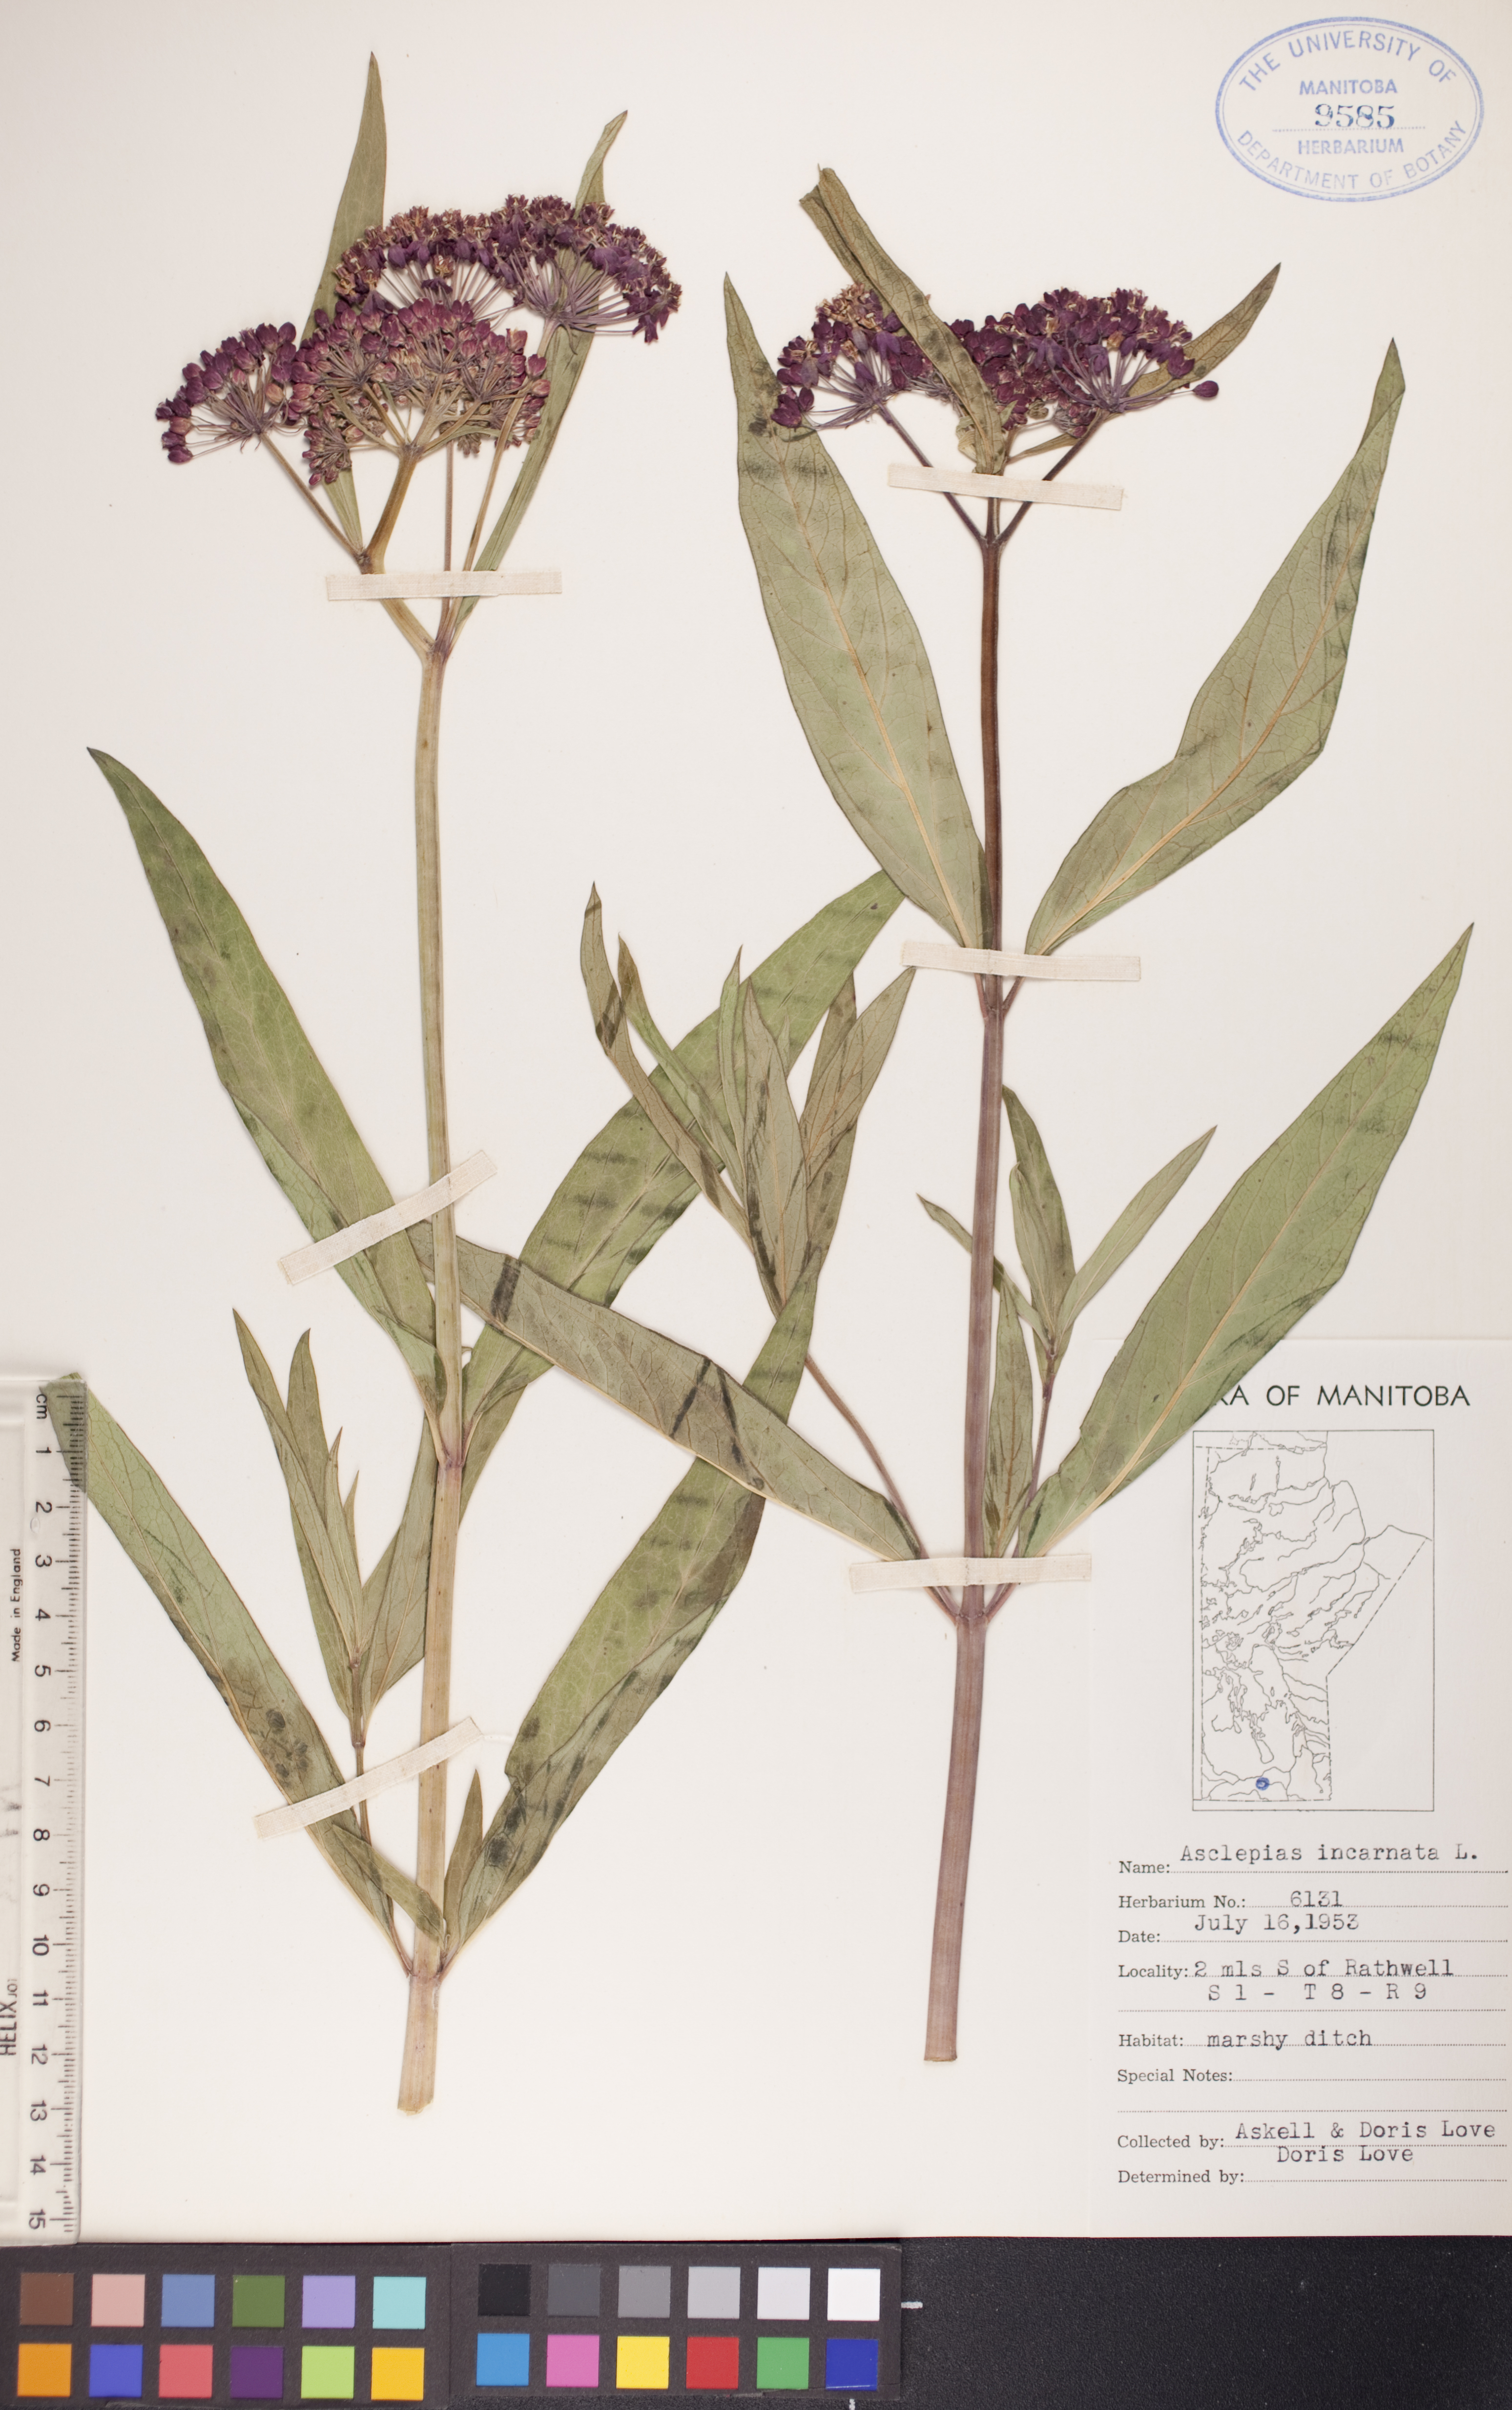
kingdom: Plantae
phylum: Tracheophyta
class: Magnoliopsida
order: Gentianales
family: Apocynaceae
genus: Asclepias
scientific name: Asclepias incarnata
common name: Swamp milkweed
